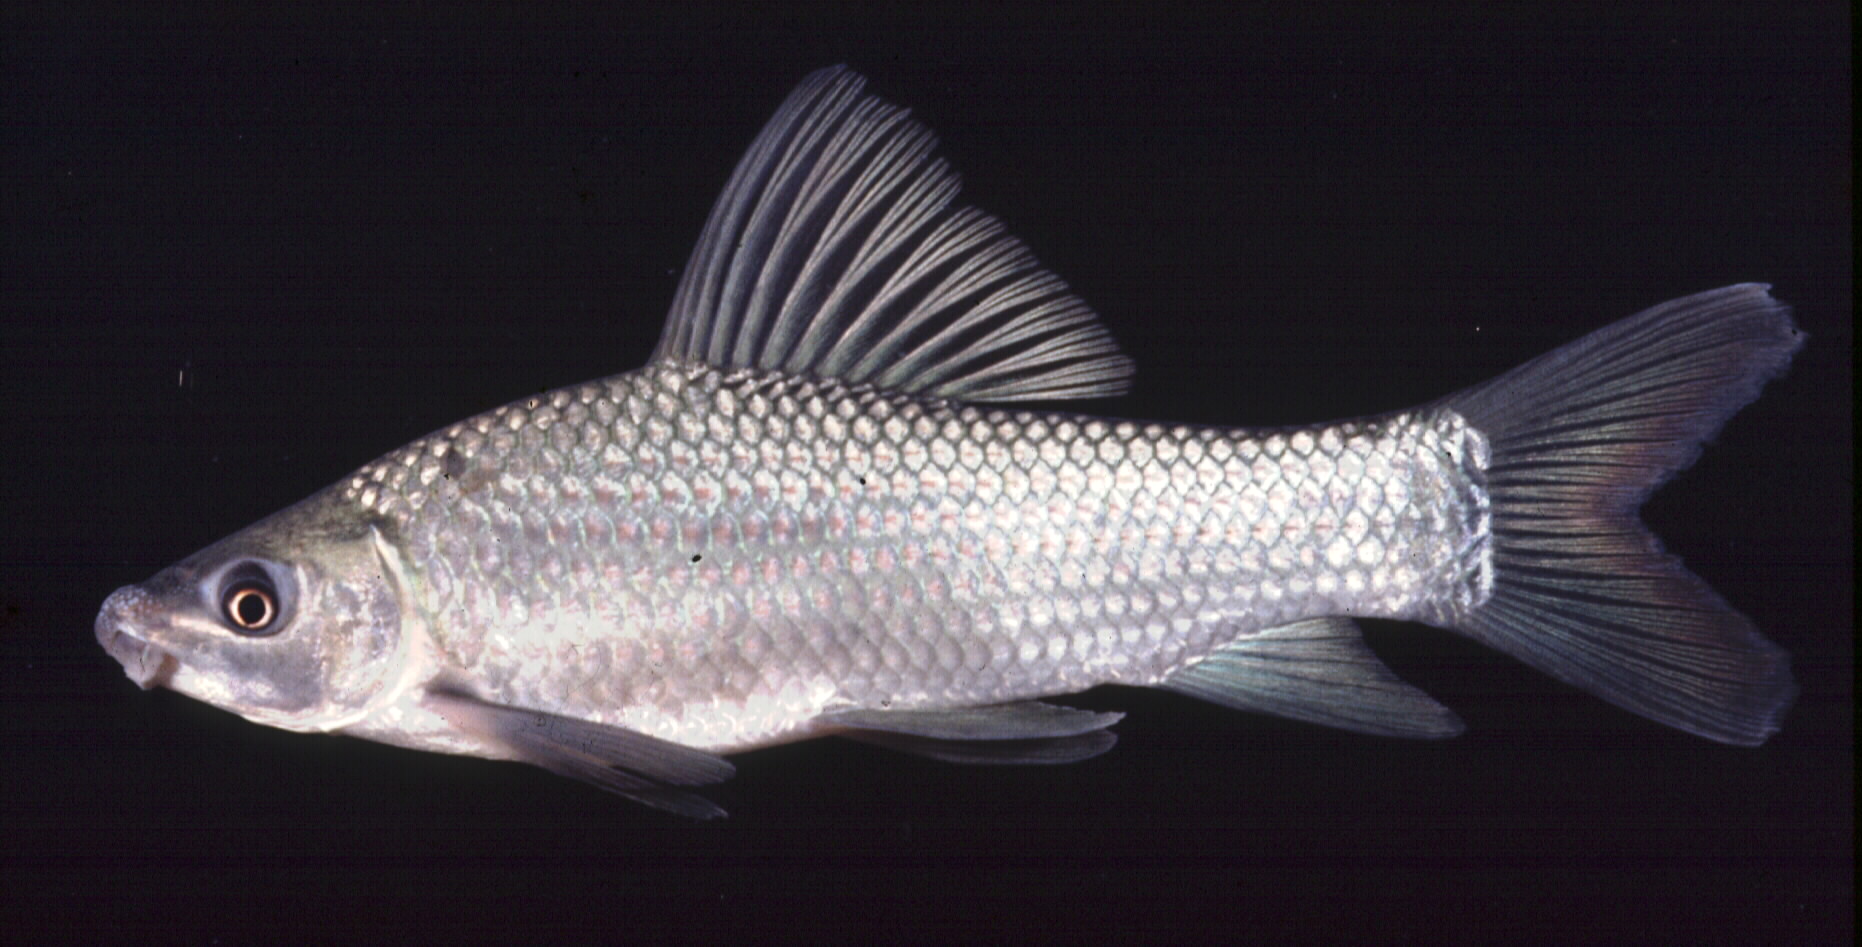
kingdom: Animalia
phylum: Chordata
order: Cypriniformes
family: Cyprinidae
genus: Labeo
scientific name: Labeo congoro
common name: Purple labeo
